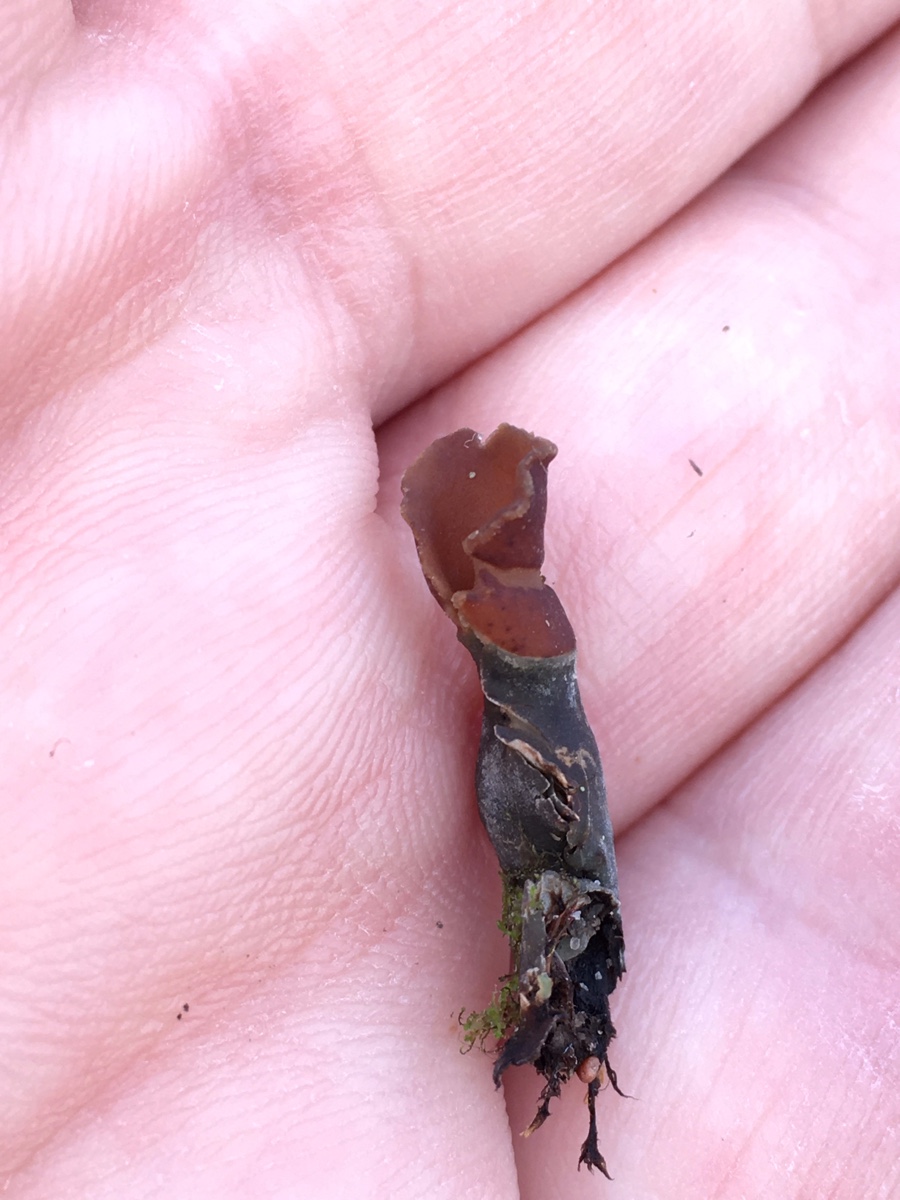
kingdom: Fungi
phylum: Ascomycota
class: Lecanoromycetes
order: Peltigerales
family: Peltigeraceae
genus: Peltigera
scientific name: Peltigera
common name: skjoldlav
